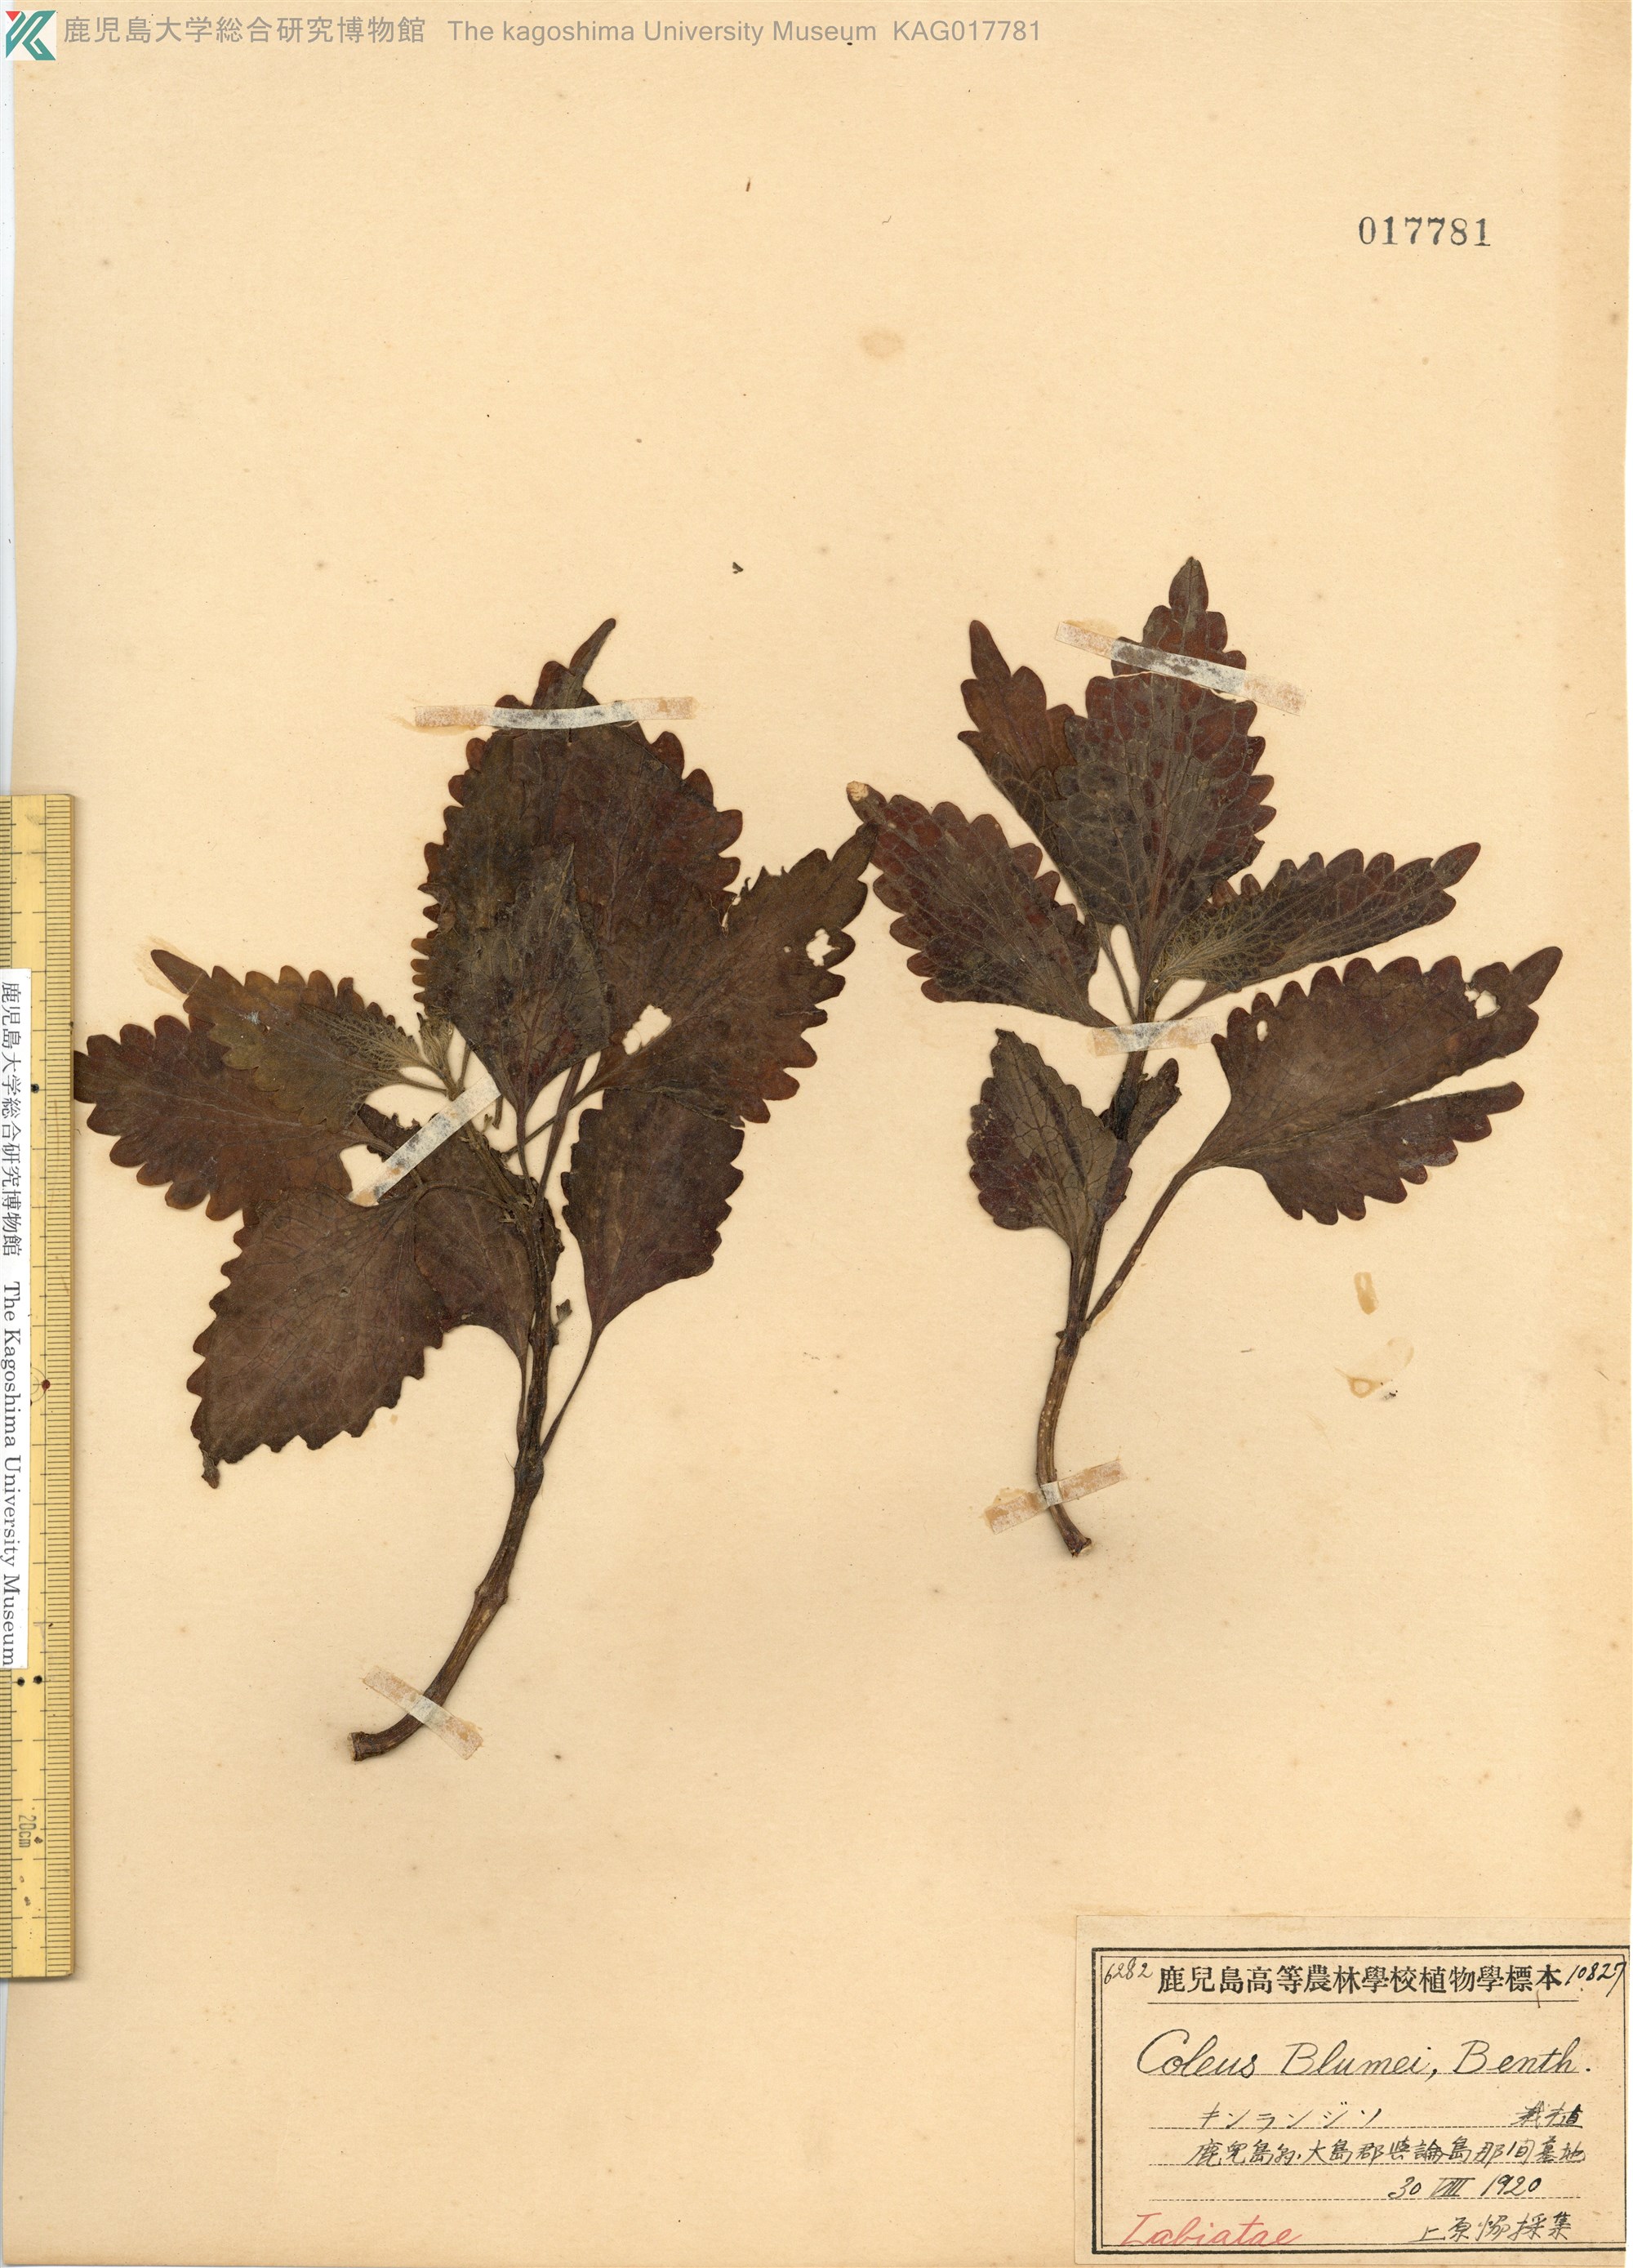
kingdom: Plantae
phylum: Tracheophyta
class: Magnoliopsida
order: Lamiales
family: Lamiaceae
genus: Coleus
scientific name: Coleus scutellarioides
